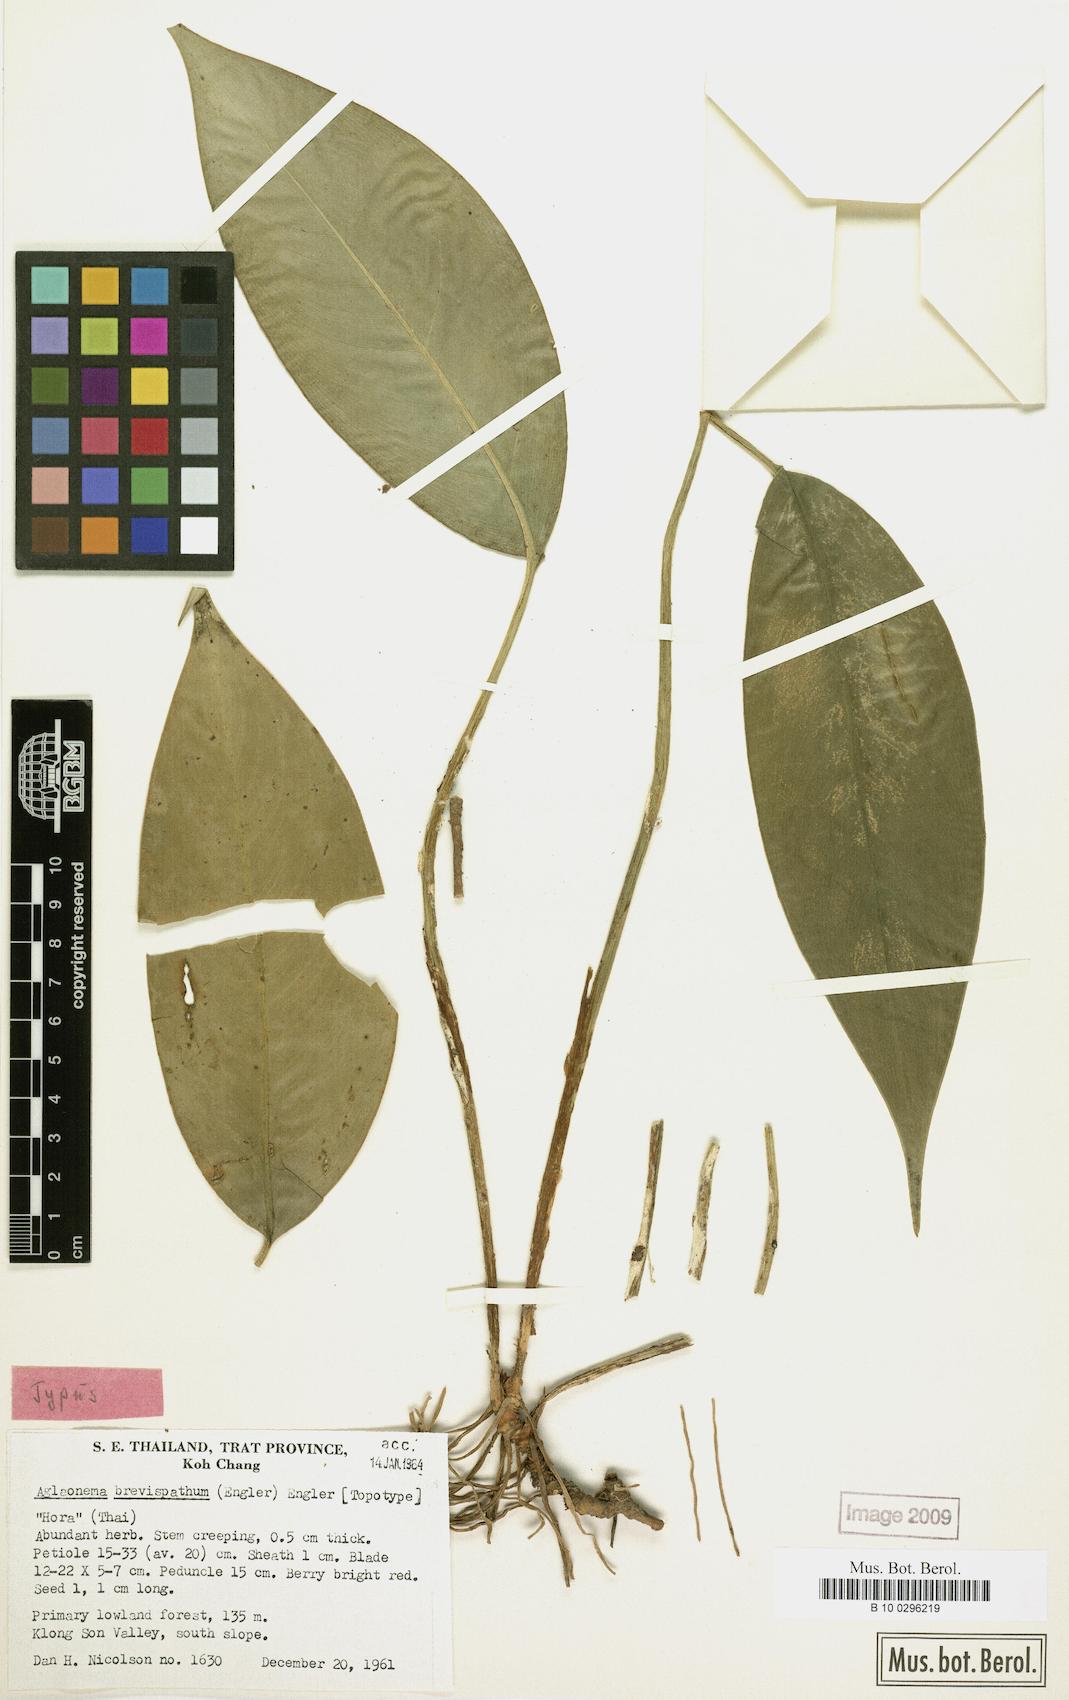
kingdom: Plantae
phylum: Tracheophyta
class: Liliopsida
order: Alismatales
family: Araceae
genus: Aglaonema
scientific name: Aglaonema brevispathum
